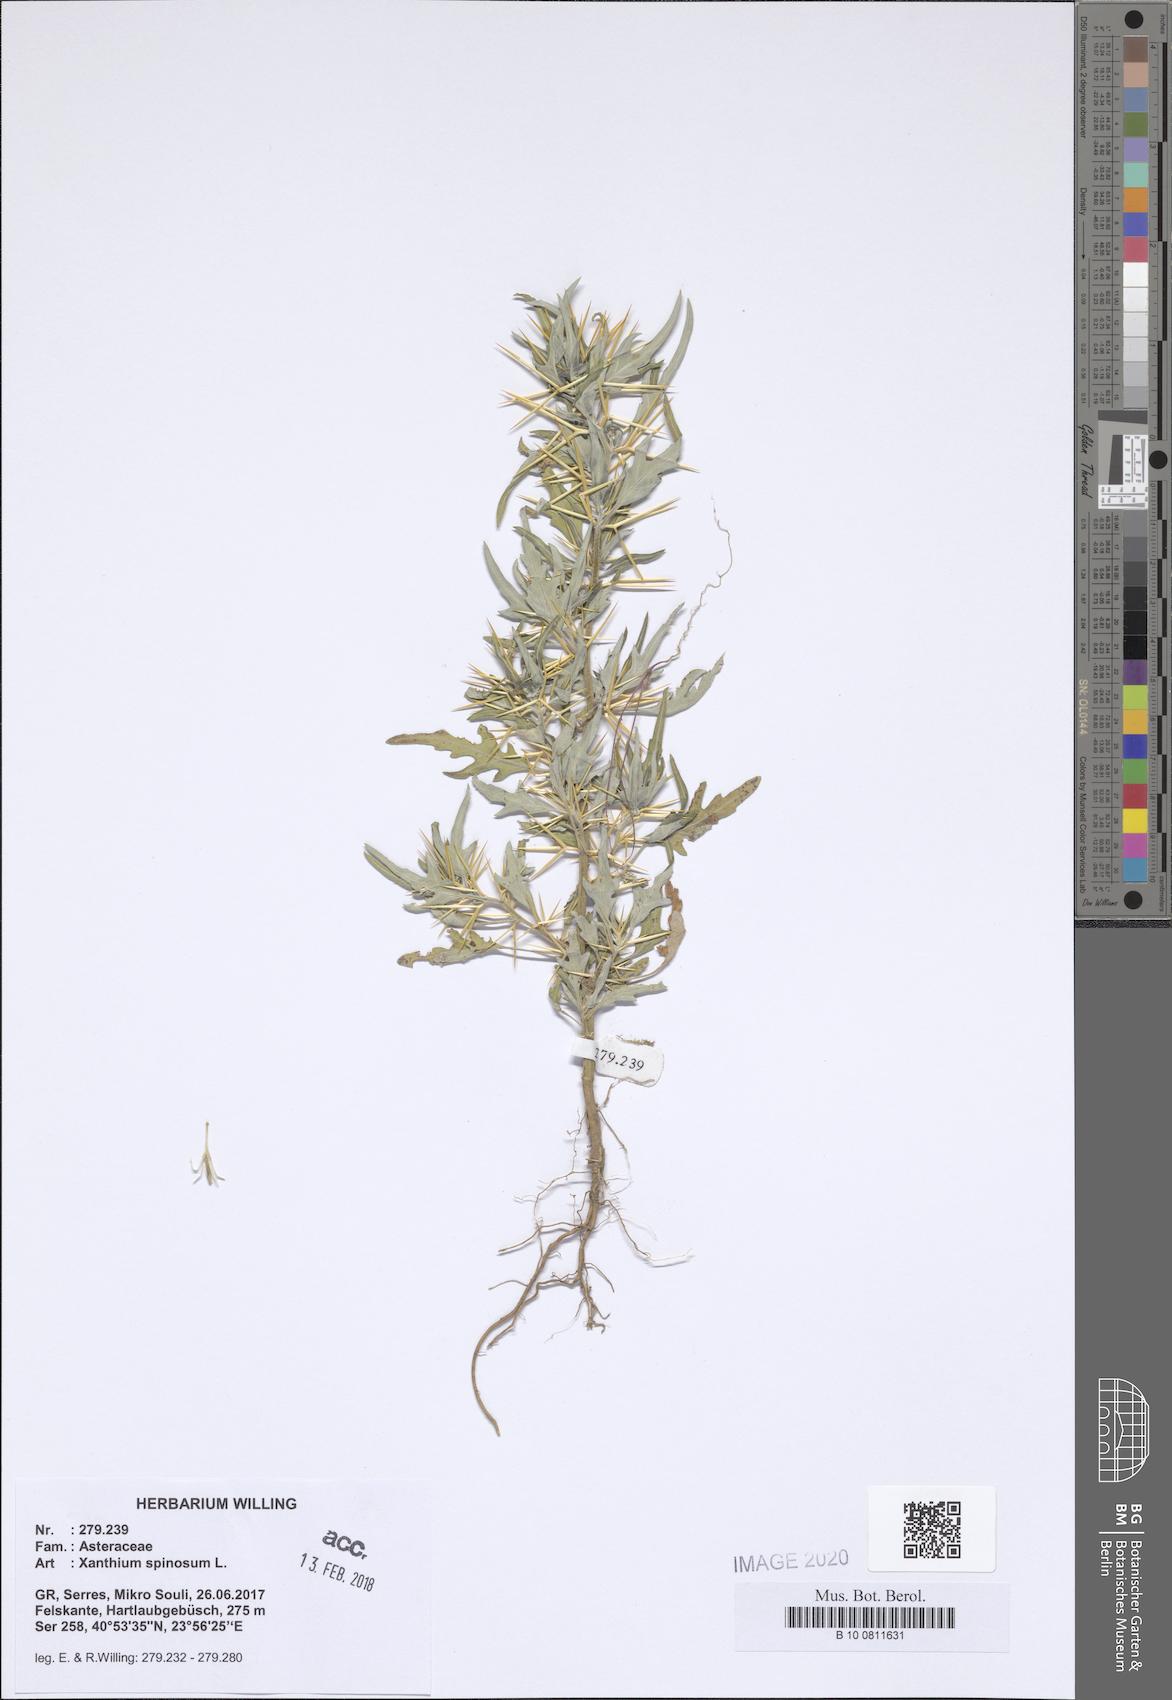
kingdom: Plantae
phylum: Tracheophyta
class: Magnoliopsida
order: Asterales
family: Asteraceae
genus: Xanthium
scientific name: Xanthium spinosum
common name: Spiny cocklebur
